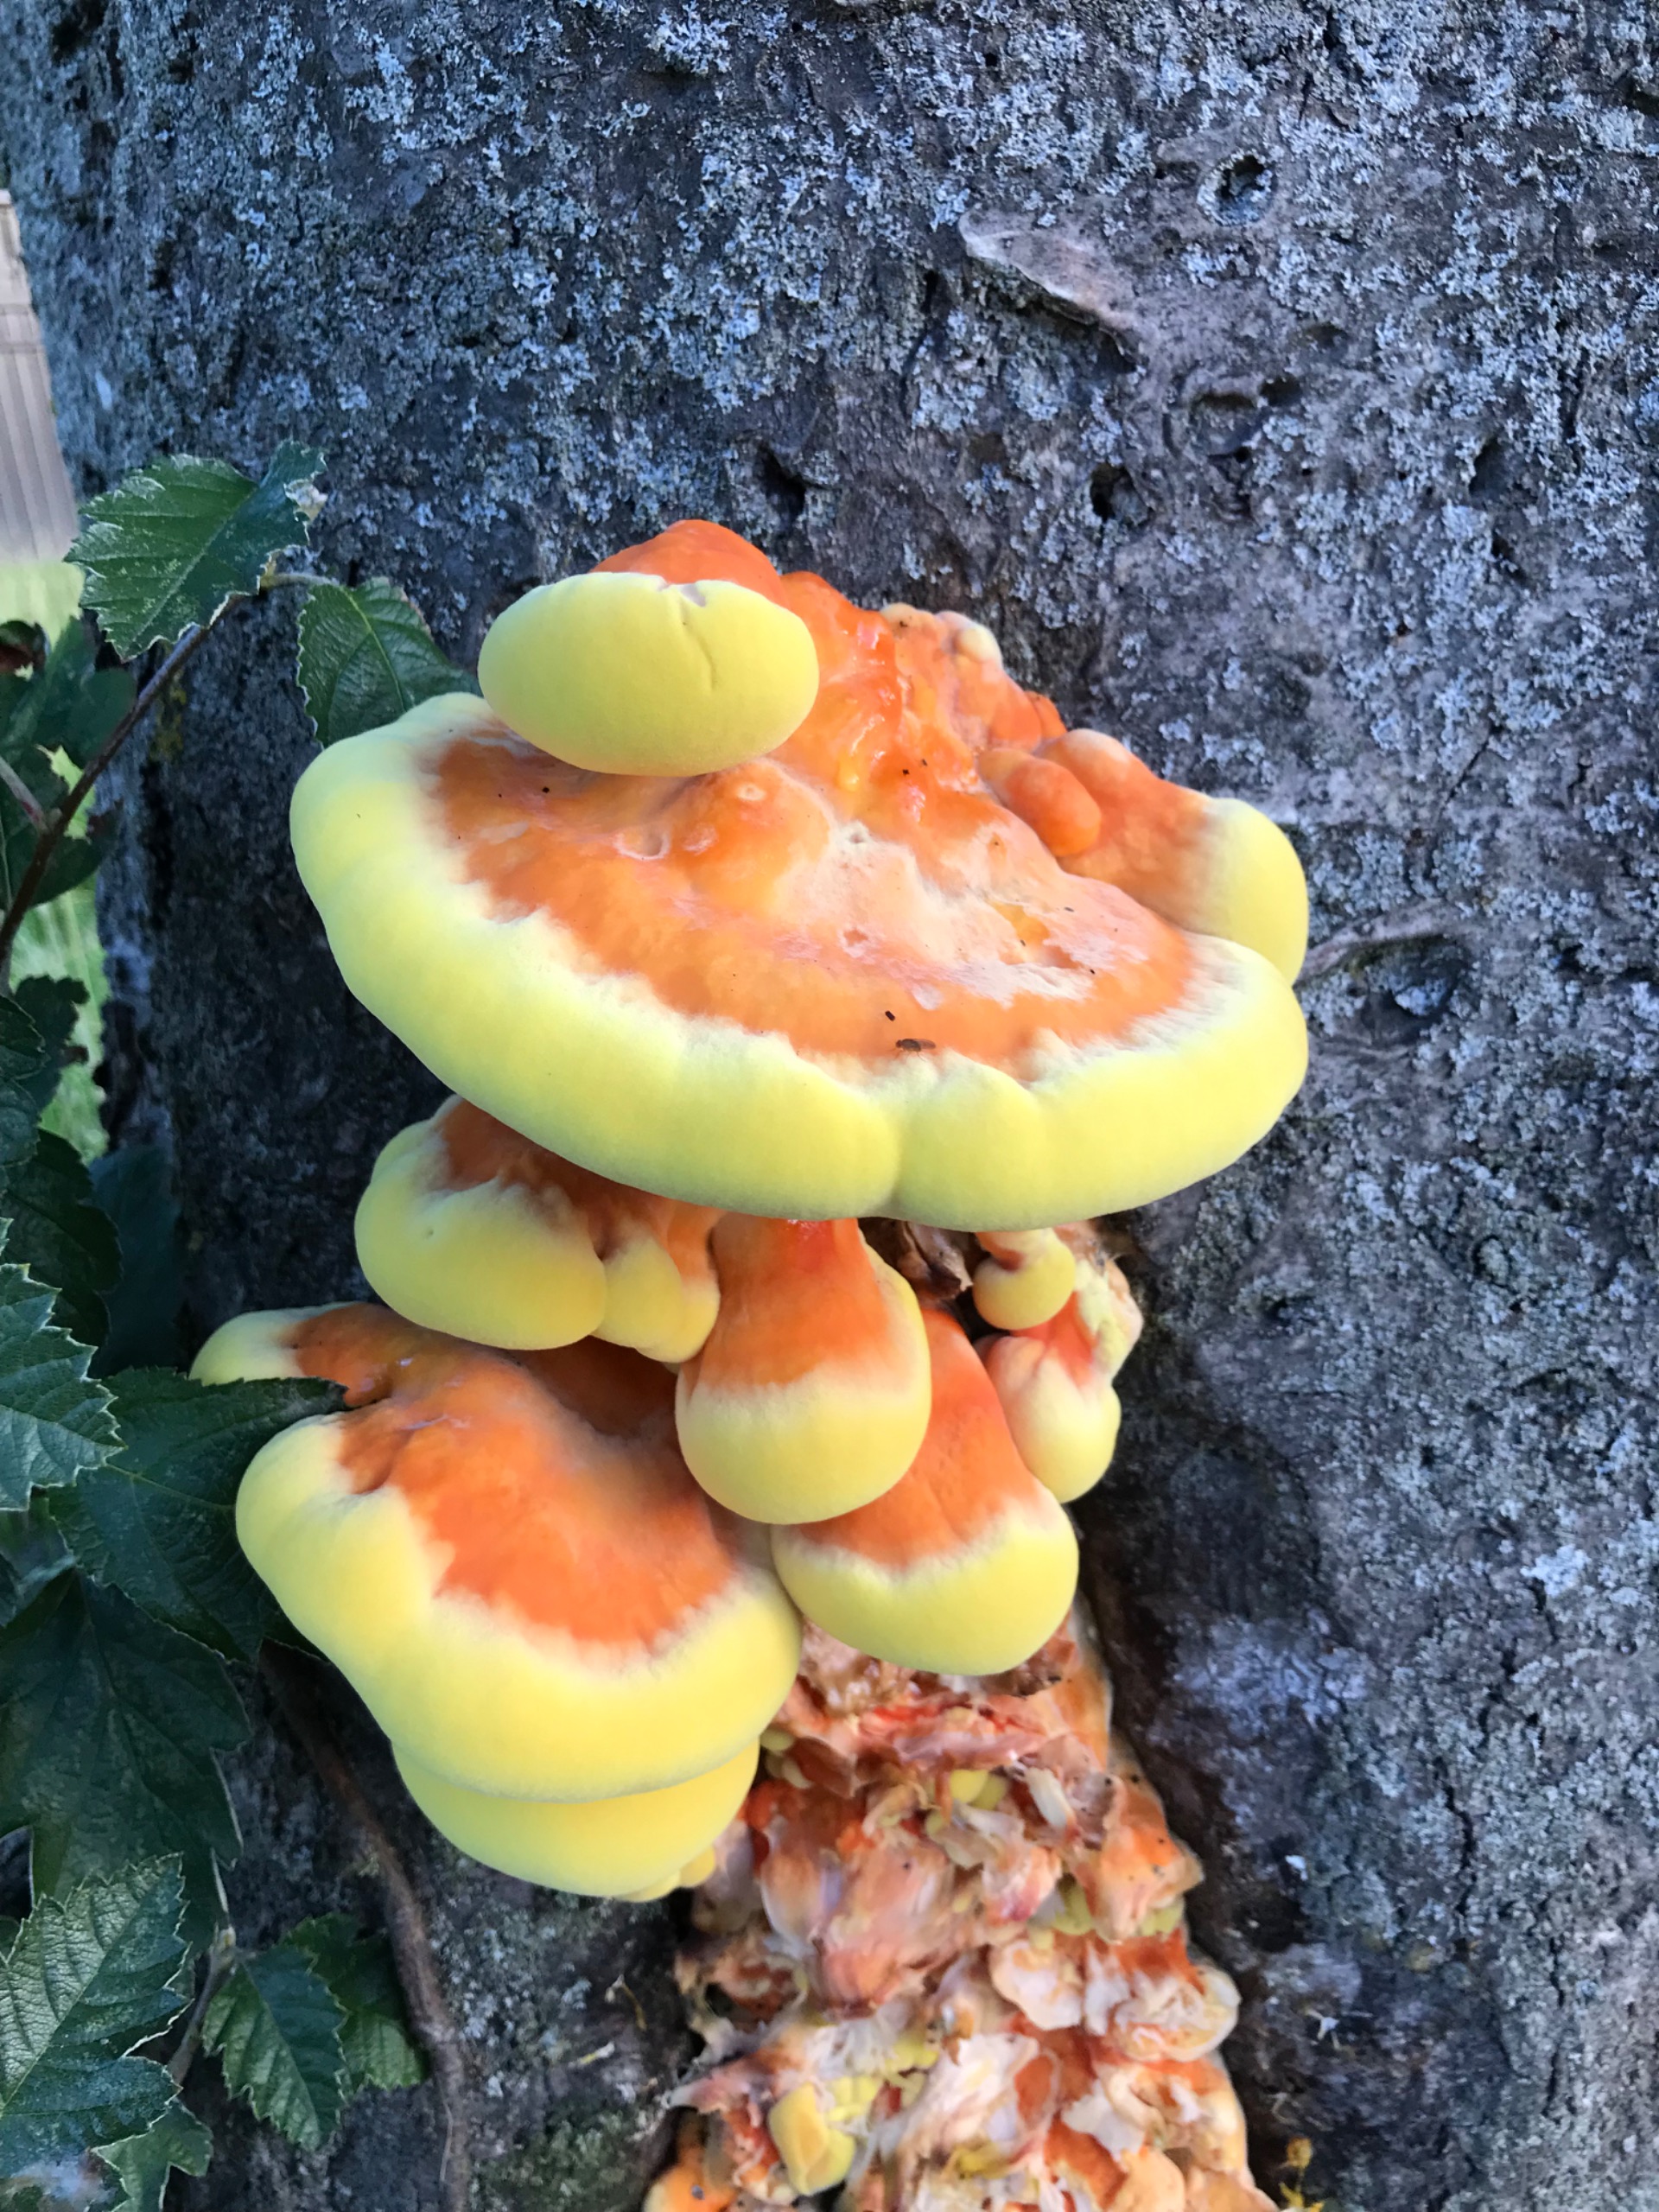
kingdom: Fungi
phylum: Basidiomycota
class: Agaricomycetes
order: Polyporales
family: Laetiporaceae
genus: Laetiporus
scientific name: Laetiporus sulphureus
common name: Svovlporesvamp
